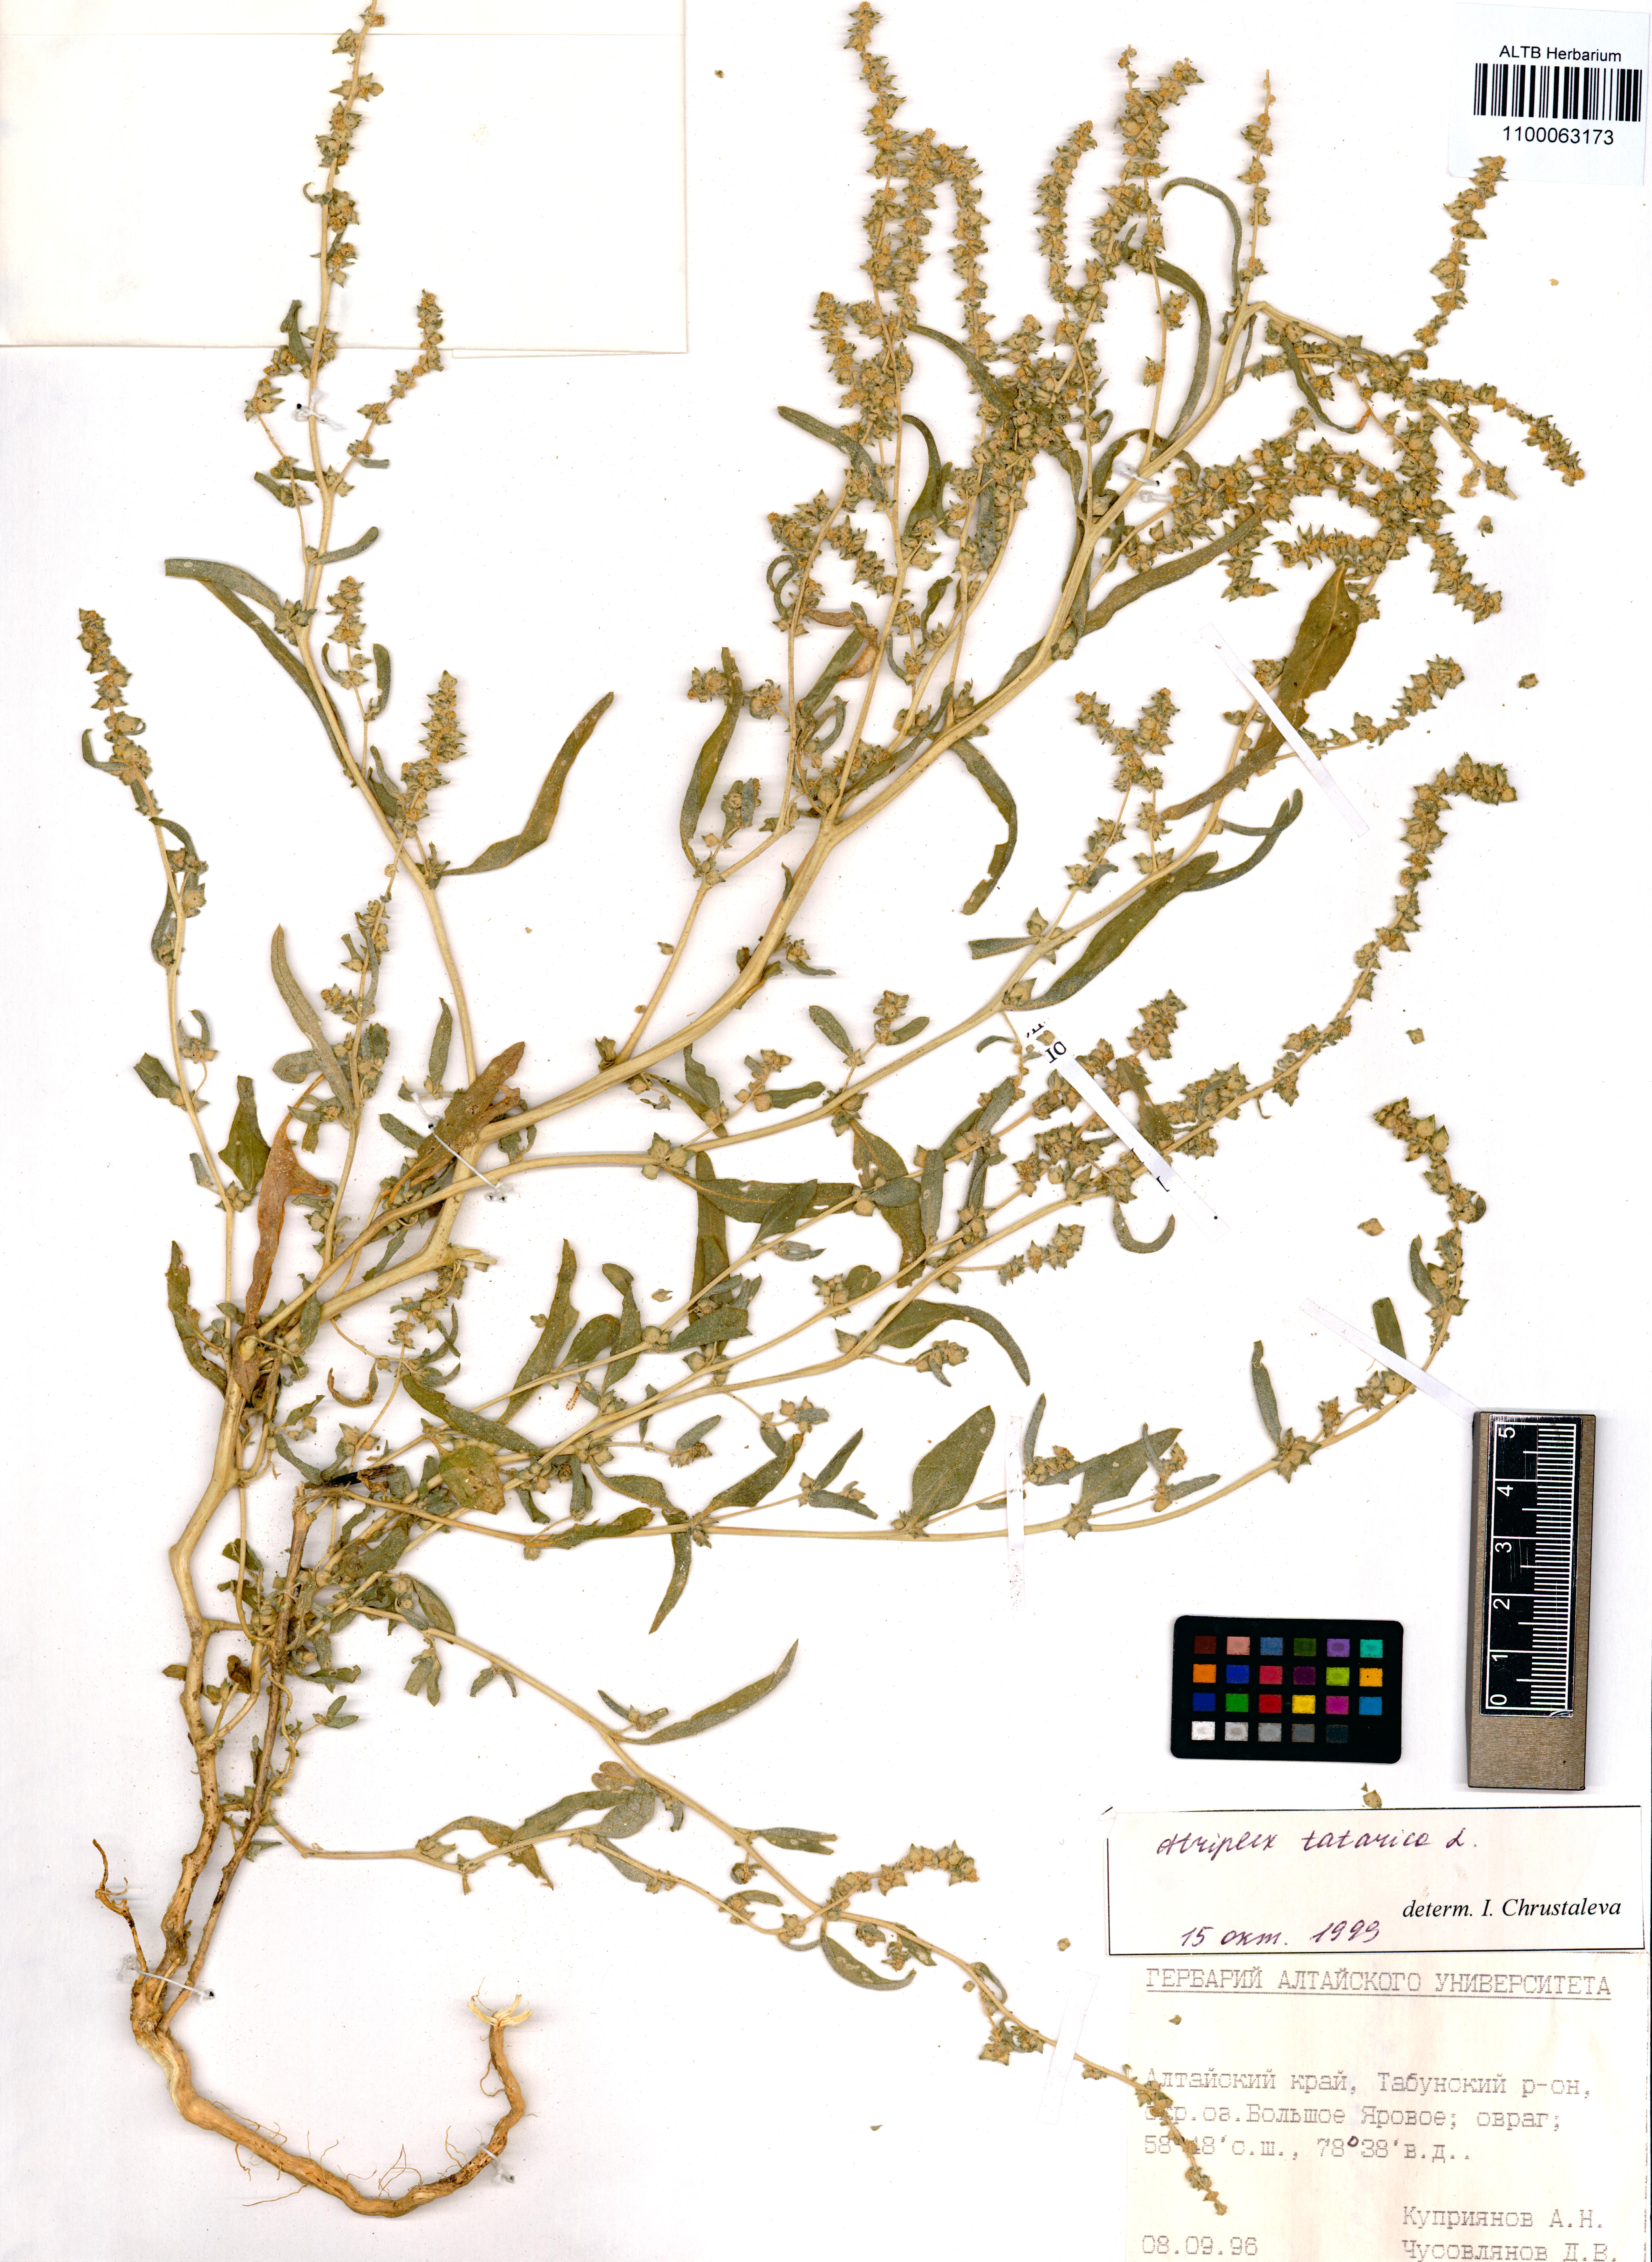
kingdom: Plantae
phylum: Tracheophyta
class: Magnoliopsida
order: Caryophyllales
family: Amaranthaceae
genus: Atriplex
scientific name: Atriplex tatarica
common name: Tatarian orache
